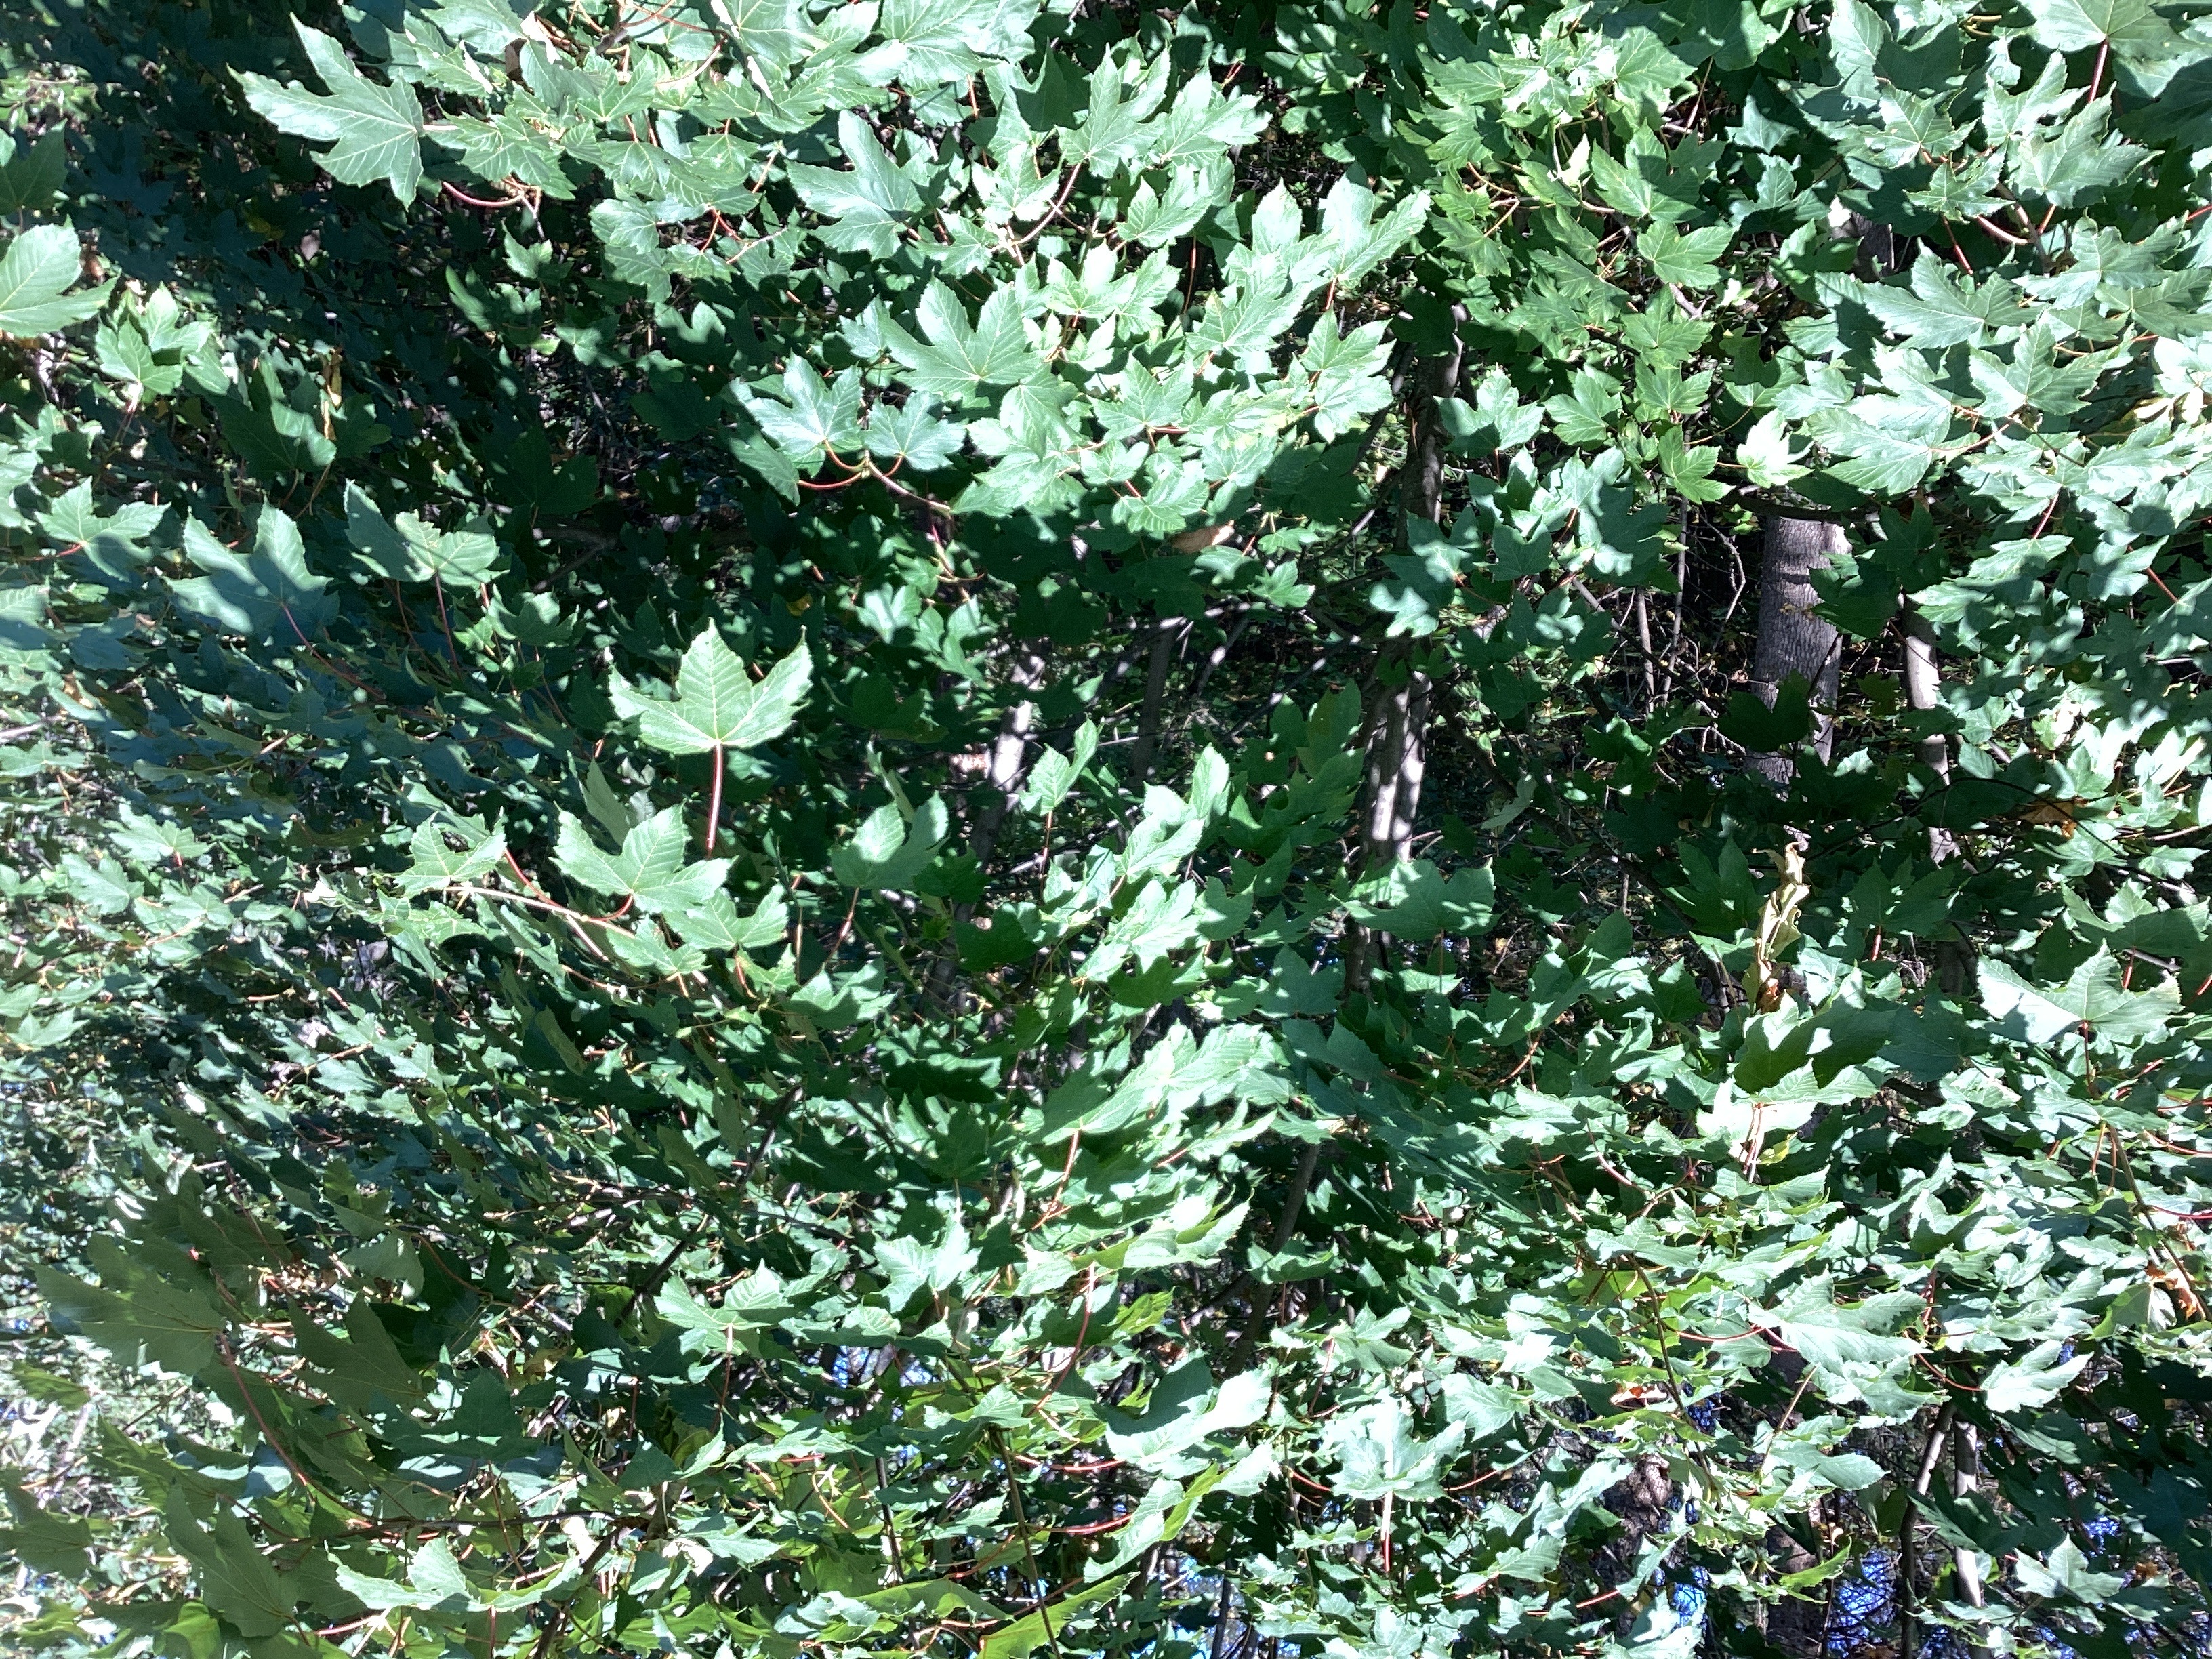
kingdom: Plantae
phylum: Tracheophyta
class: Magnoliopsida
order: Sapindales
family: Sapindaceae
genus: Acer
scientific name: Acer pseudoplatanus
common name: platanlønn
